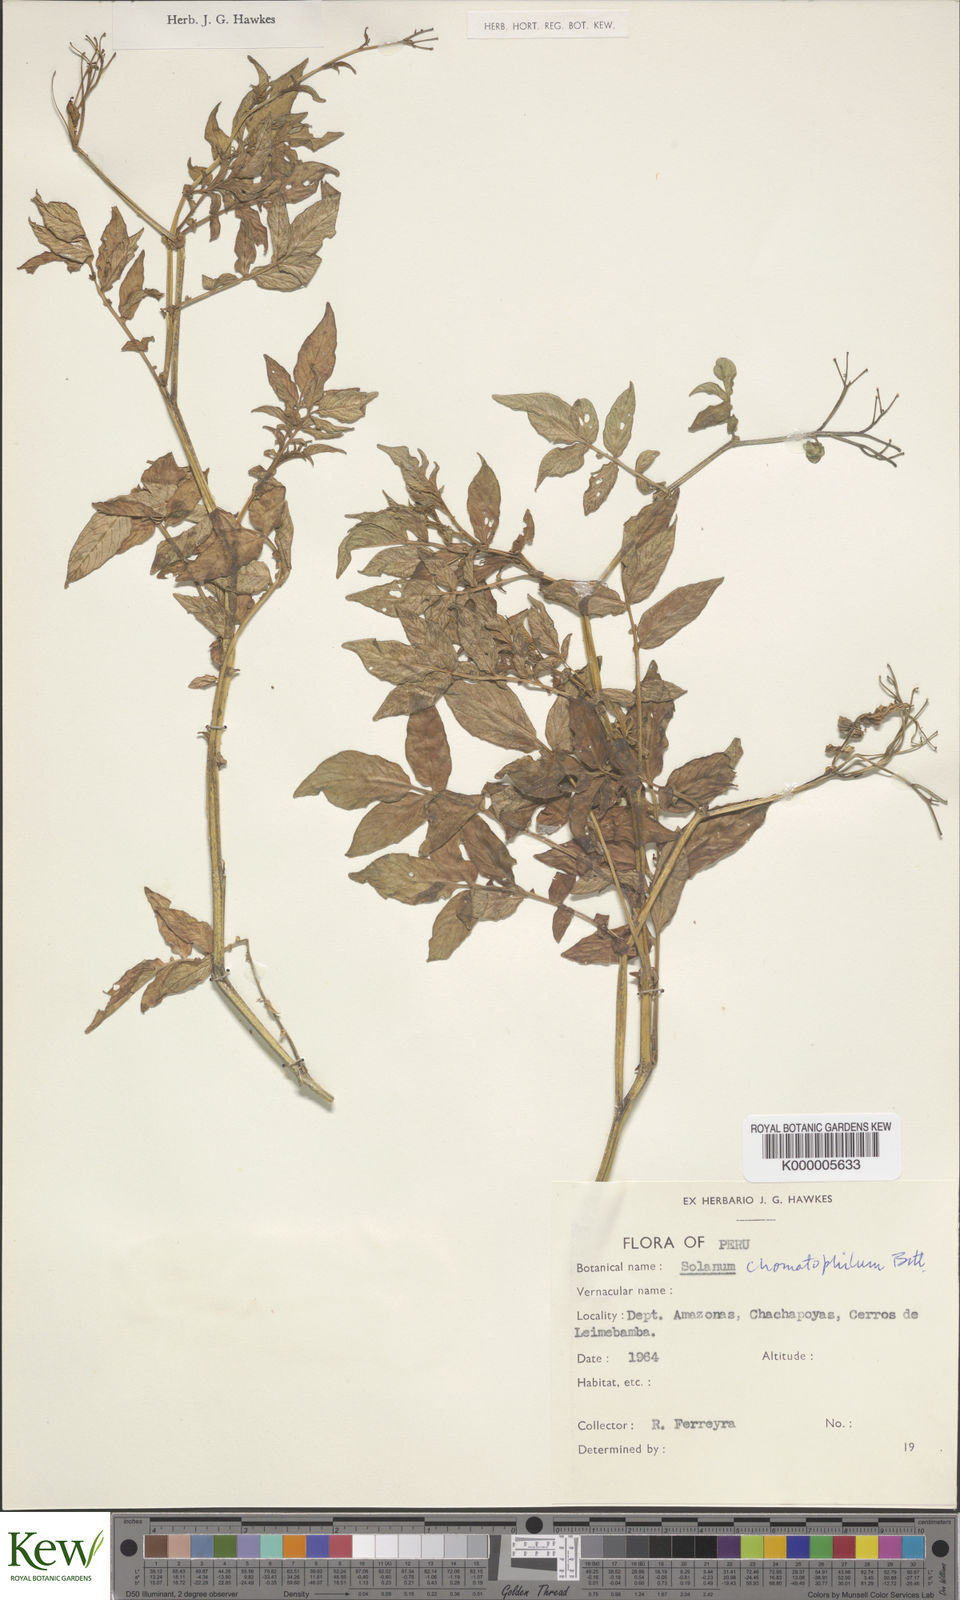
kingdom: Plantae
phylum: Tracheophyta
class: Magnoliopsida
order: Solanales
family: Solanaceae
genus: Solanum
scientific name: Solanum chomatophilum
